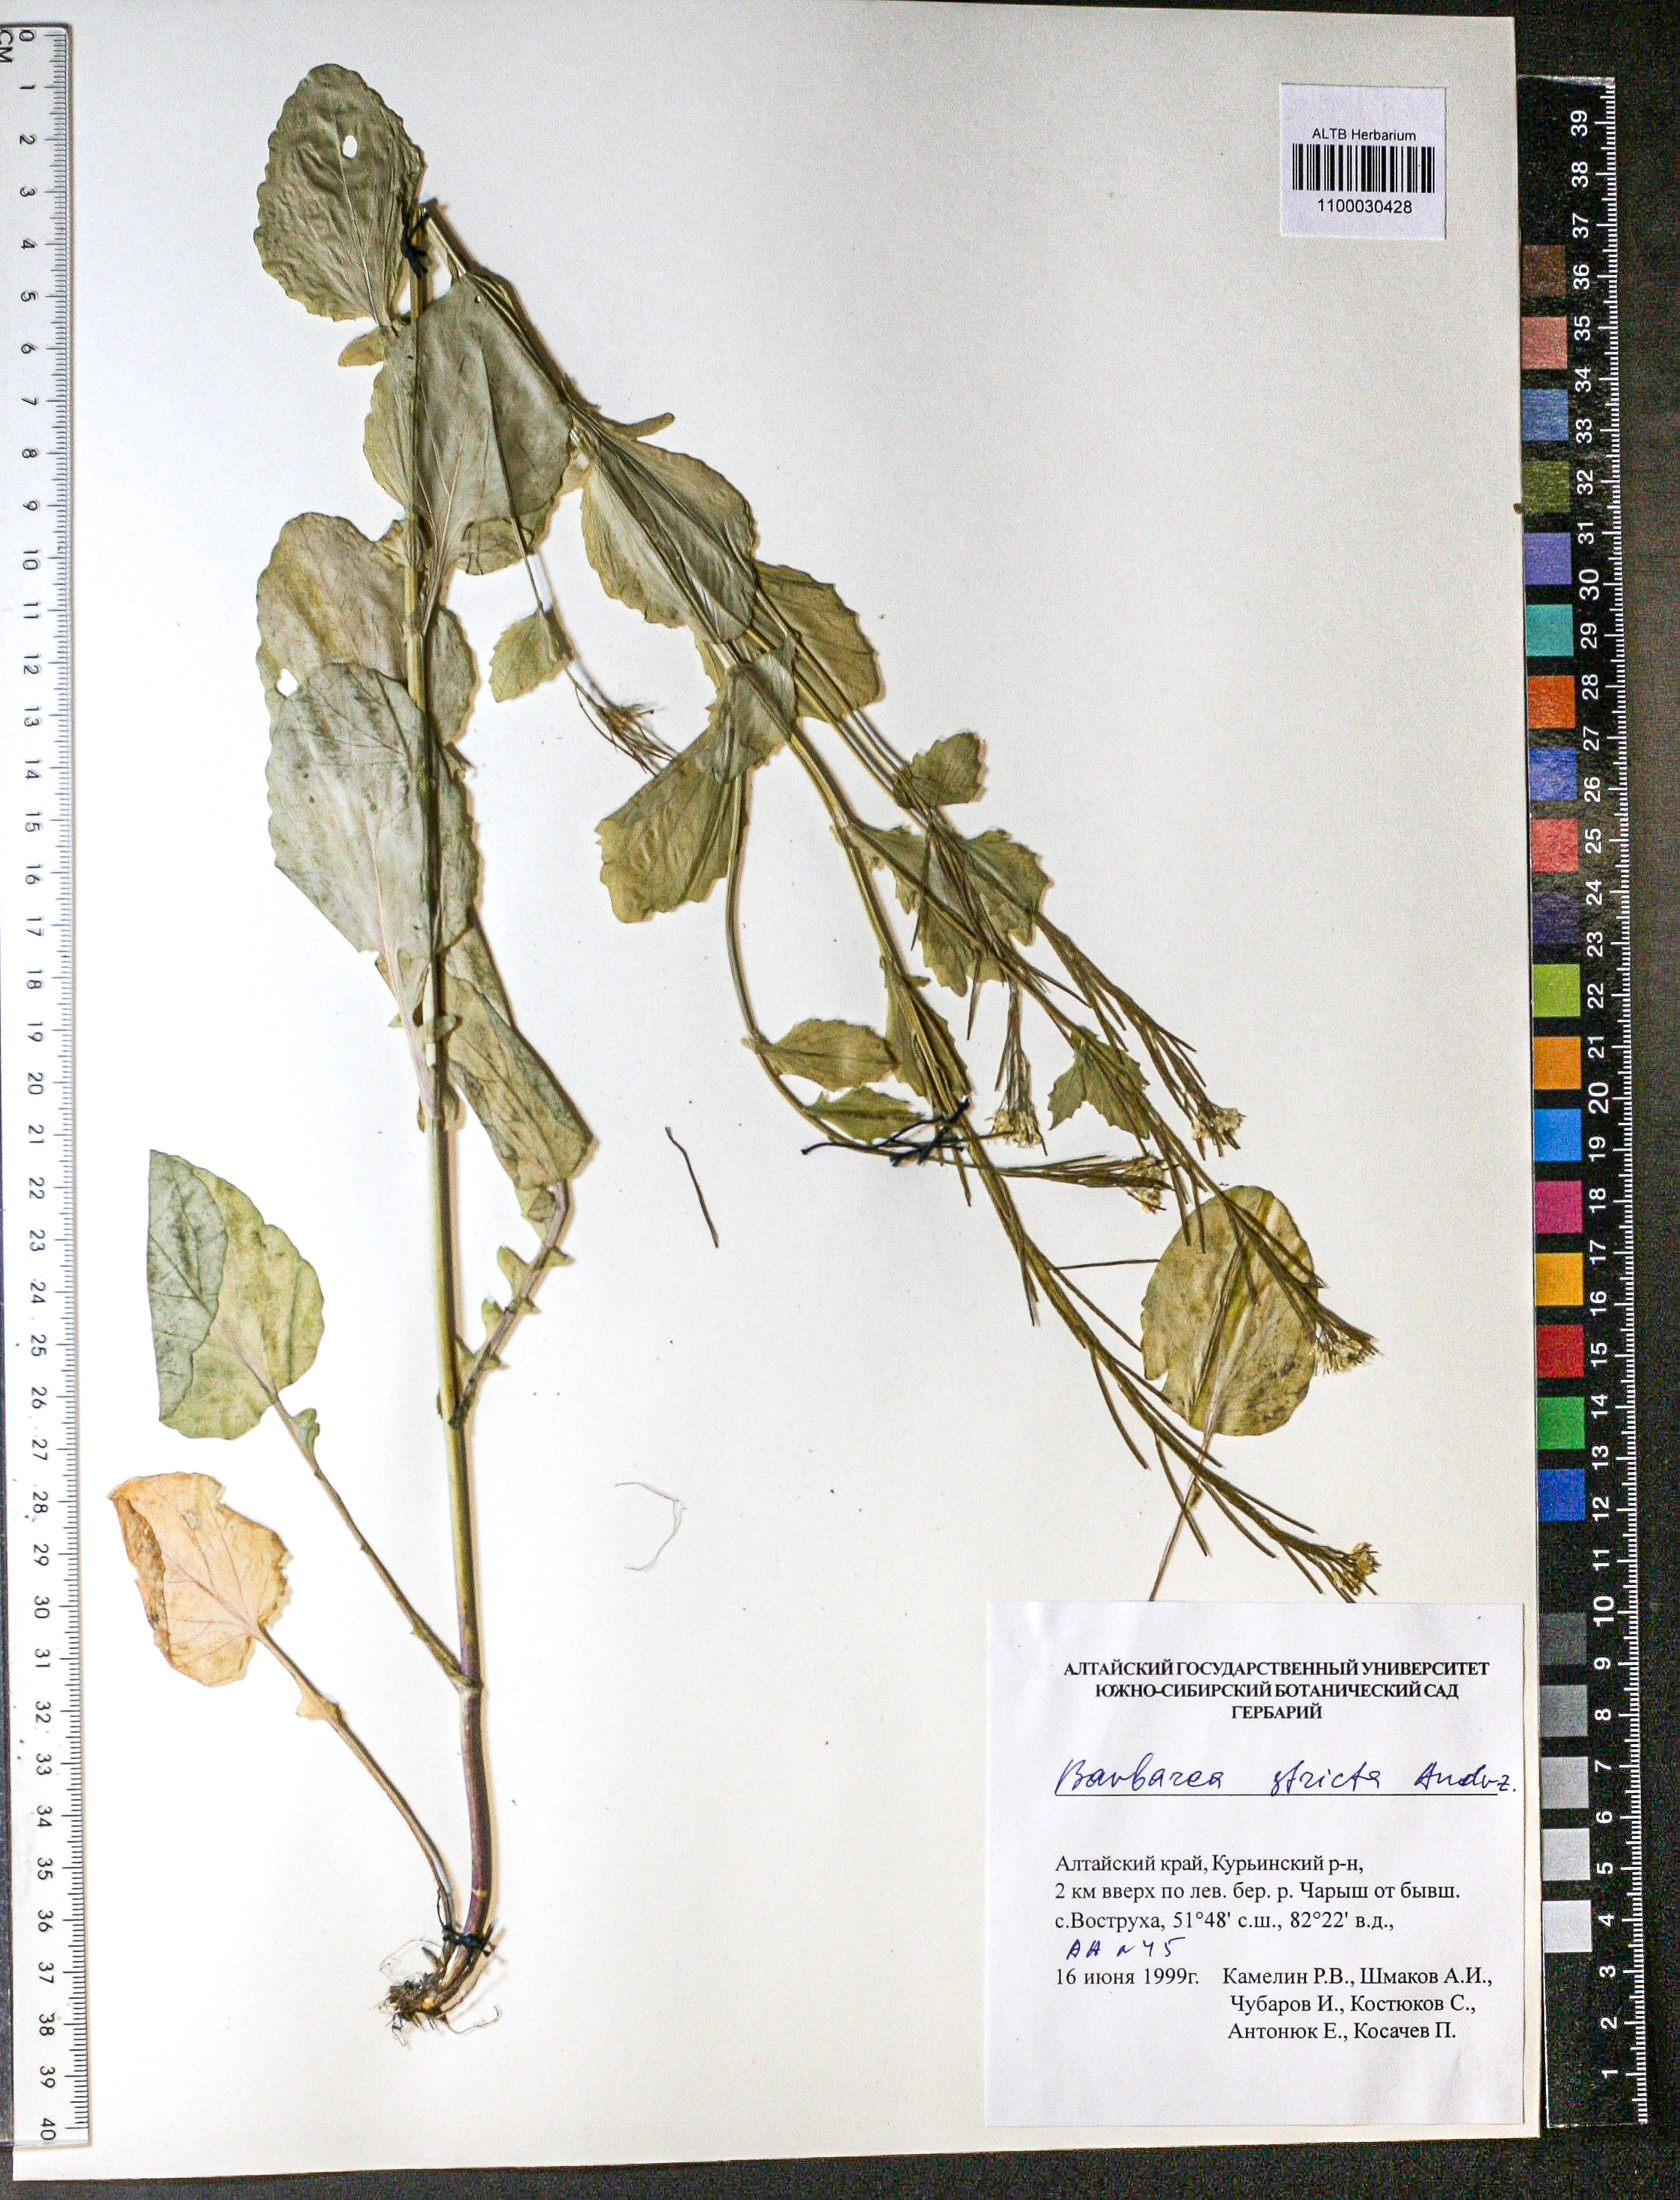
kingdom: Plantae
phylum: Tracheophyta
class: Magnoliopsida
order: Brassicales
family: Brassicaceae
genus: Barbarea
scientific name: Barbarea vulgaris
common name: Cressy-greens
